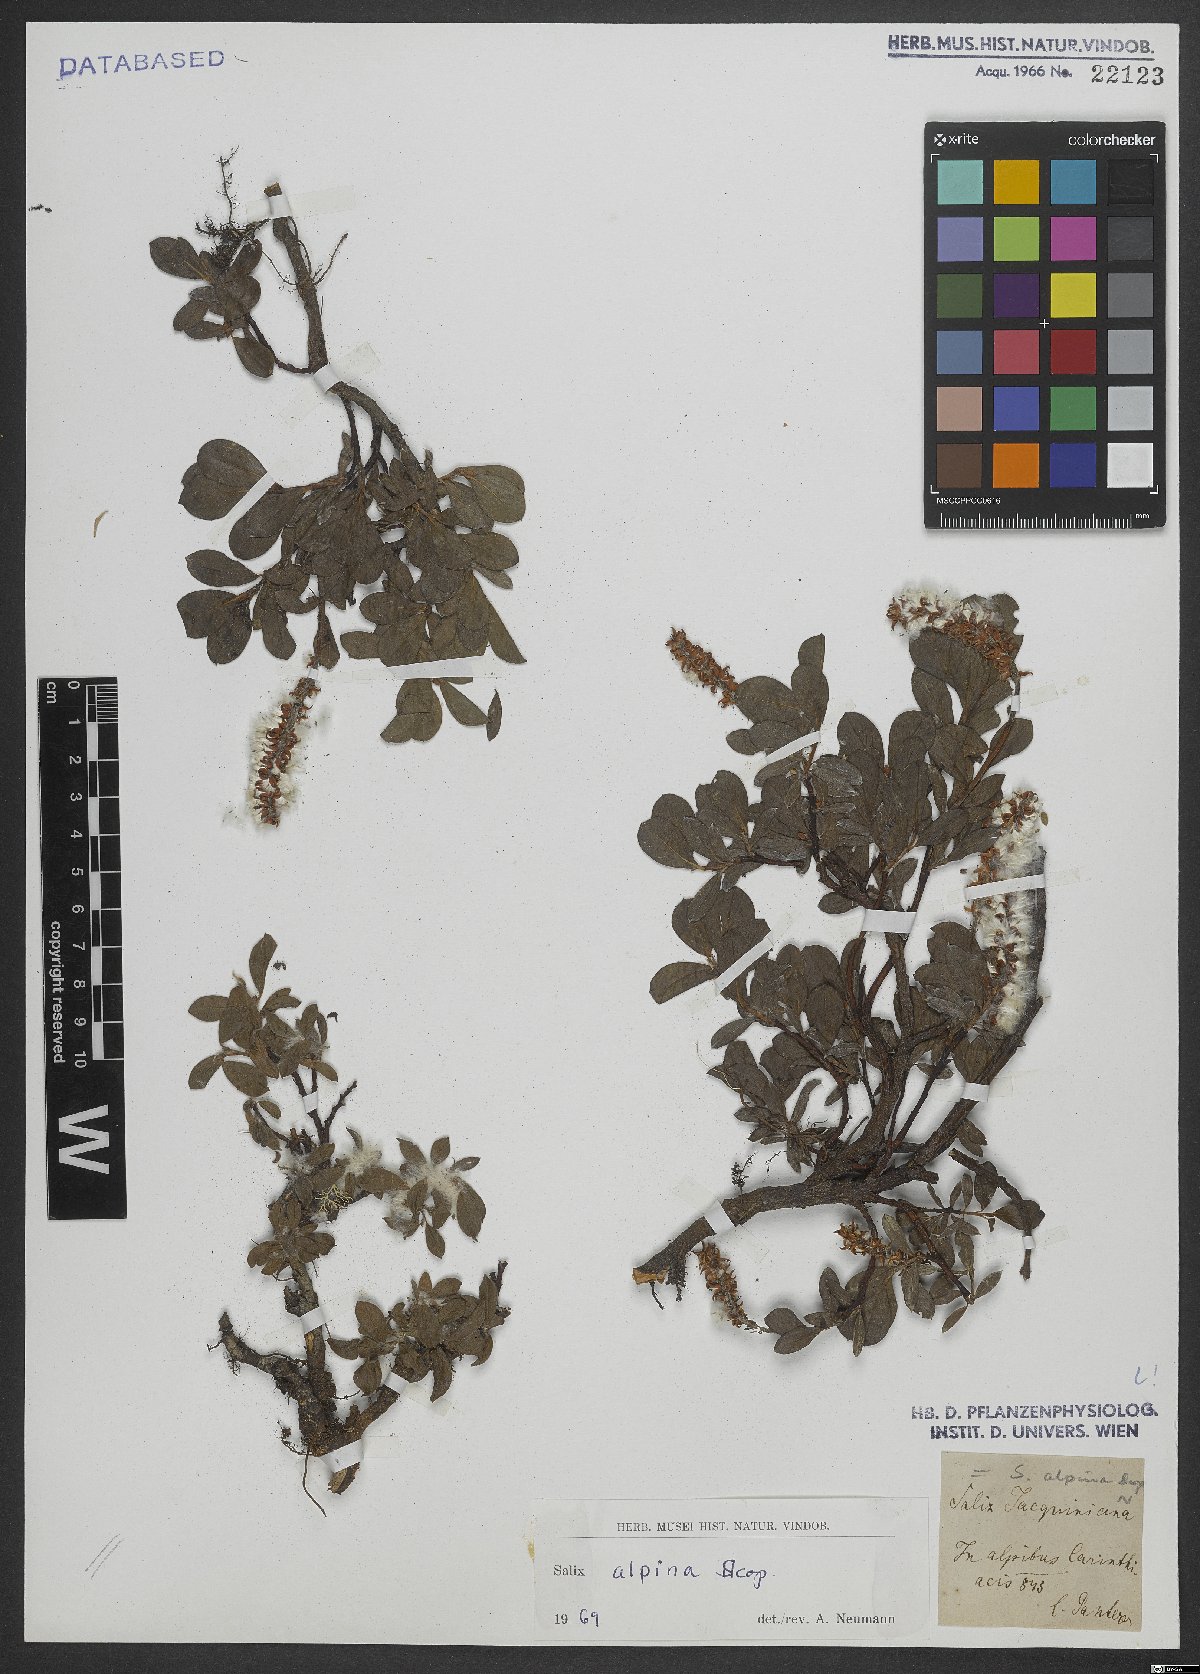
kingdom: Plantae
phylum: Tracheophyta
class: Magnoliopsida
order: Malpighiales
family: Salicaceae
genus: Salix
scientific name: Salix alpina
